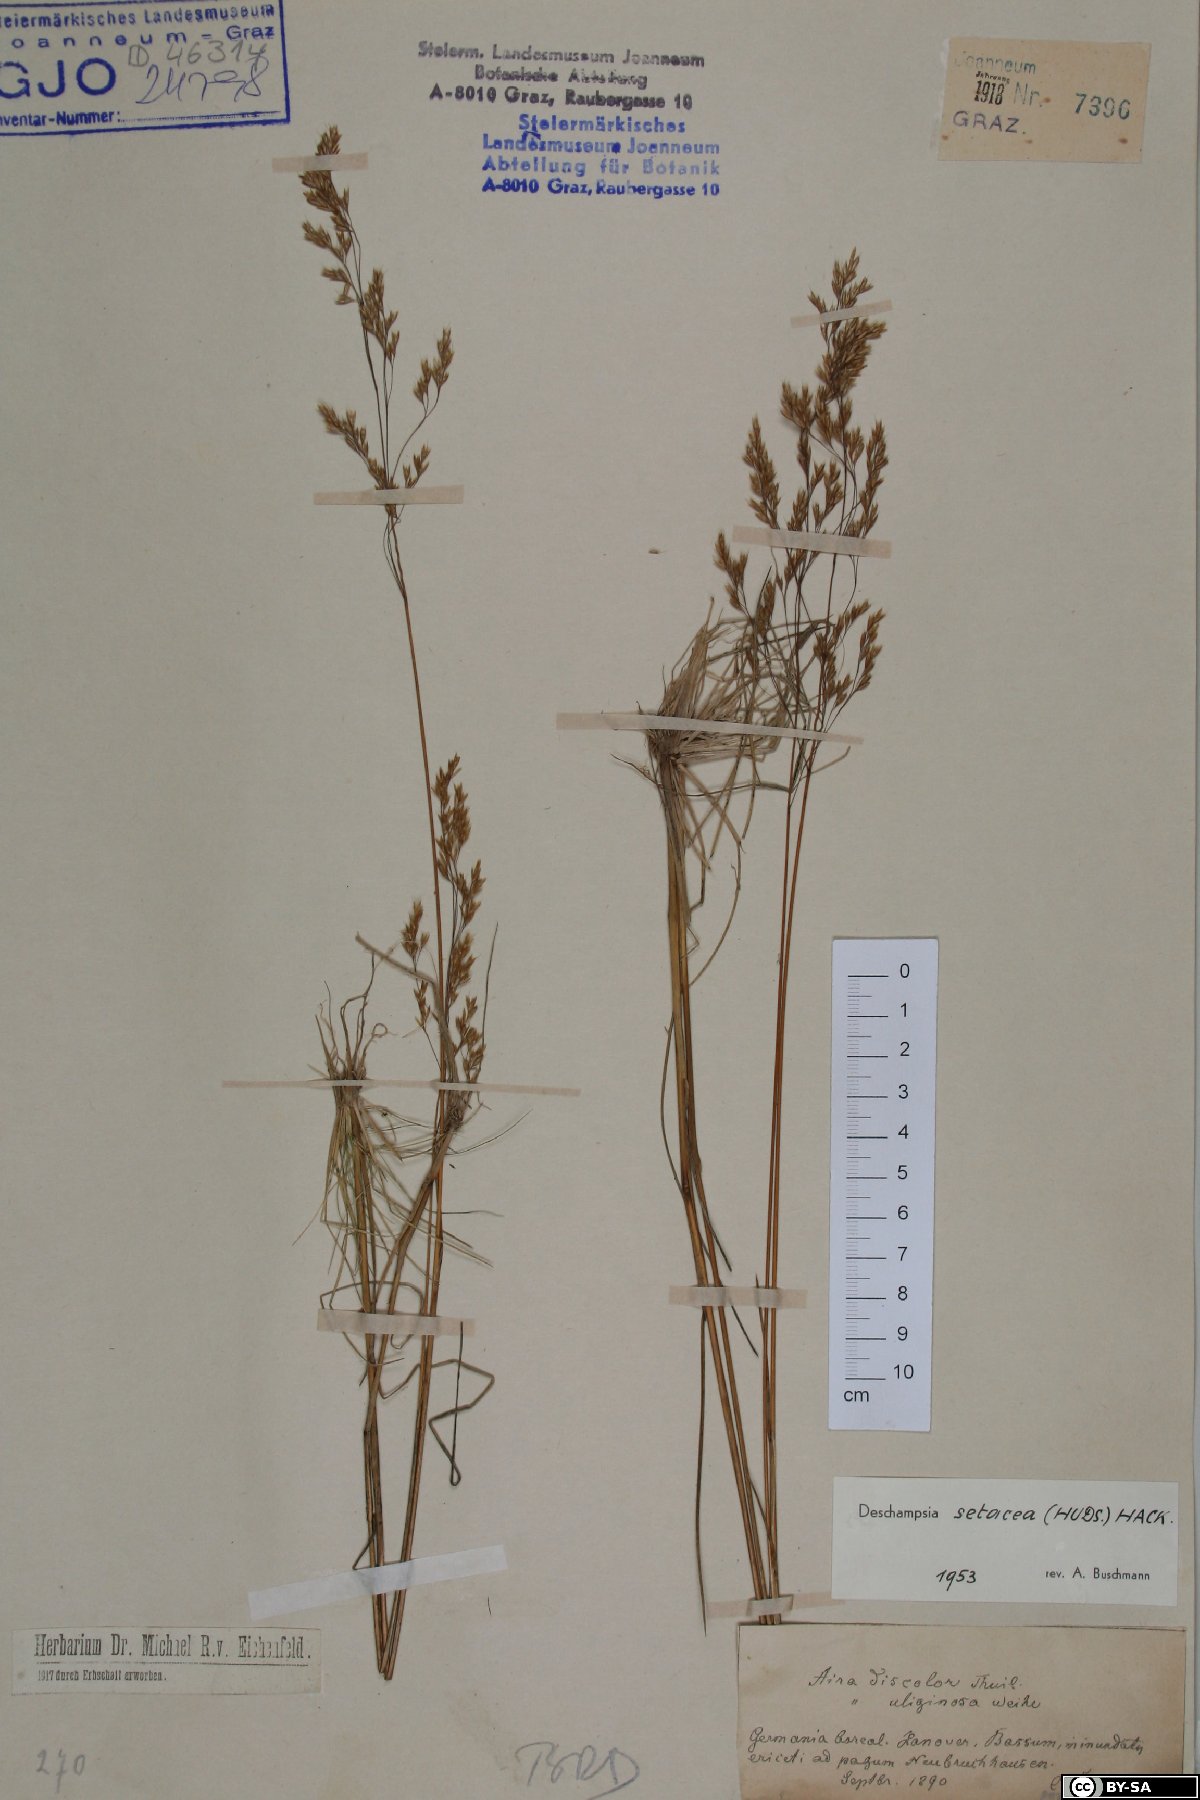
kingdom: Plantae
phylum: Tracheophyta
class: Liliopsida
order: Poales
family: Poaceae
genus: Deschampsia
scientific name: Deschampsia setacea
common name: Bog hair-grass
